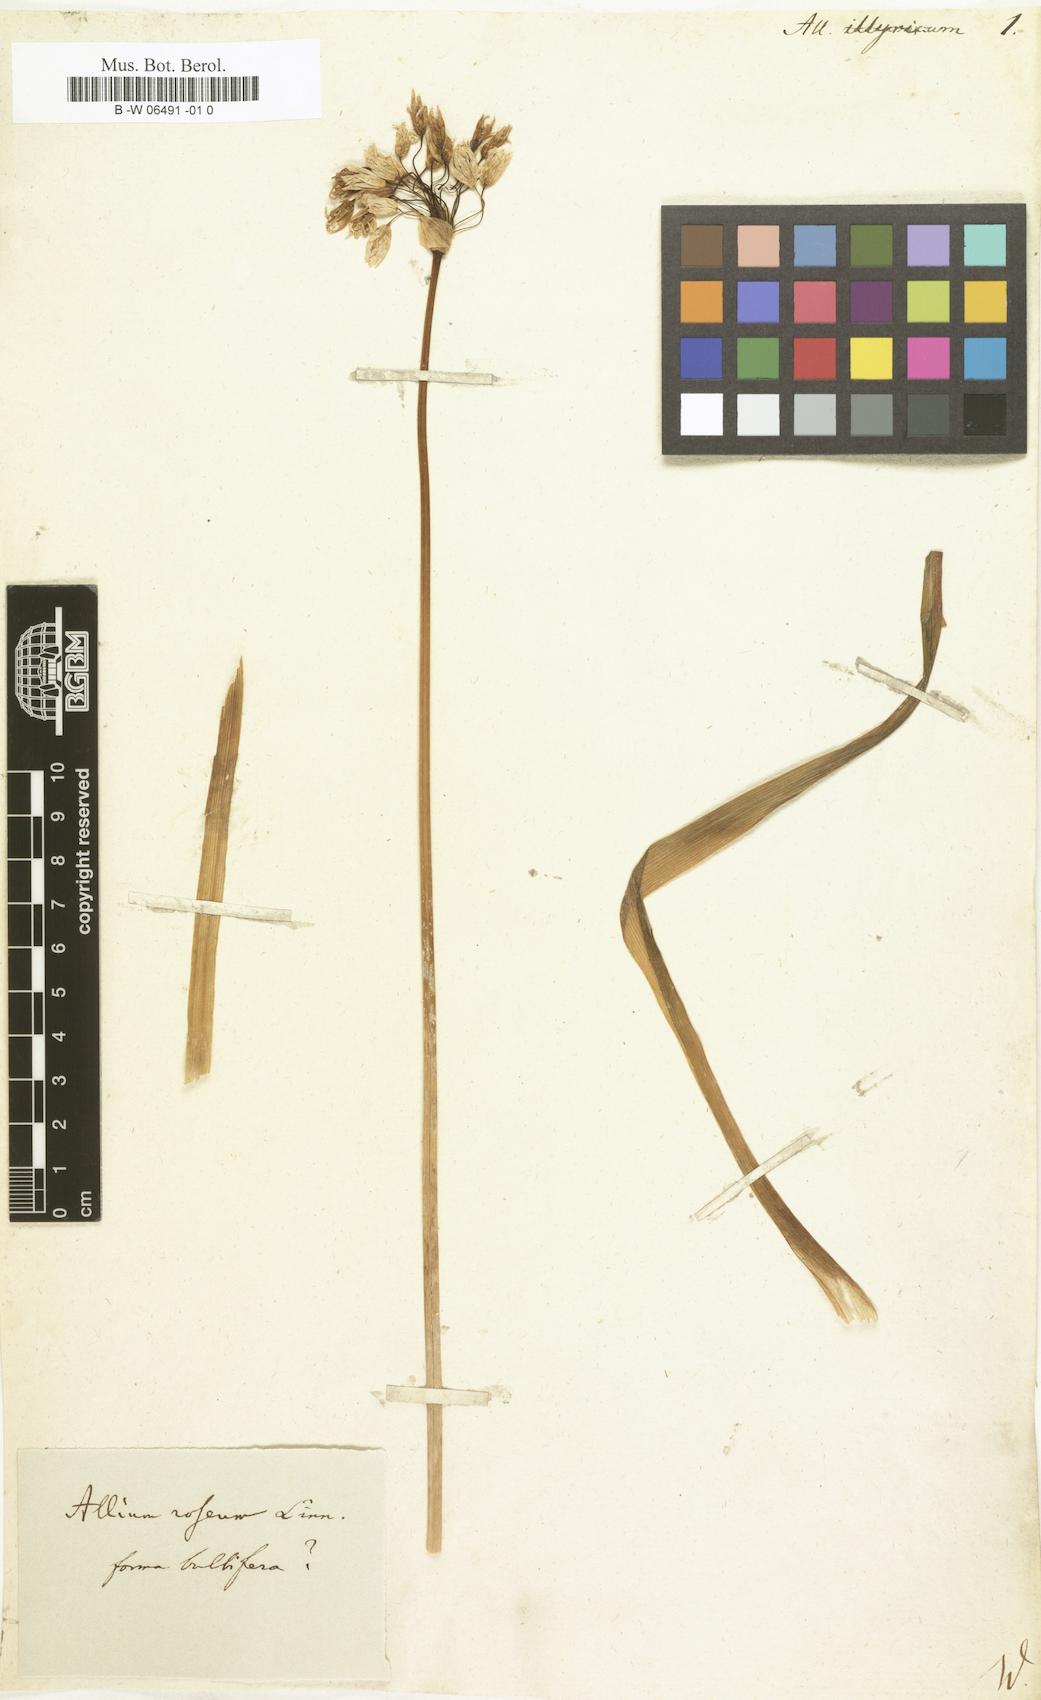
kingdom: Plantae
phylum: Tracheophyta
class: Liliopsida
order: Asparagales
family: Amaryllidaceae
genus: Allium
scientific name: Allium
